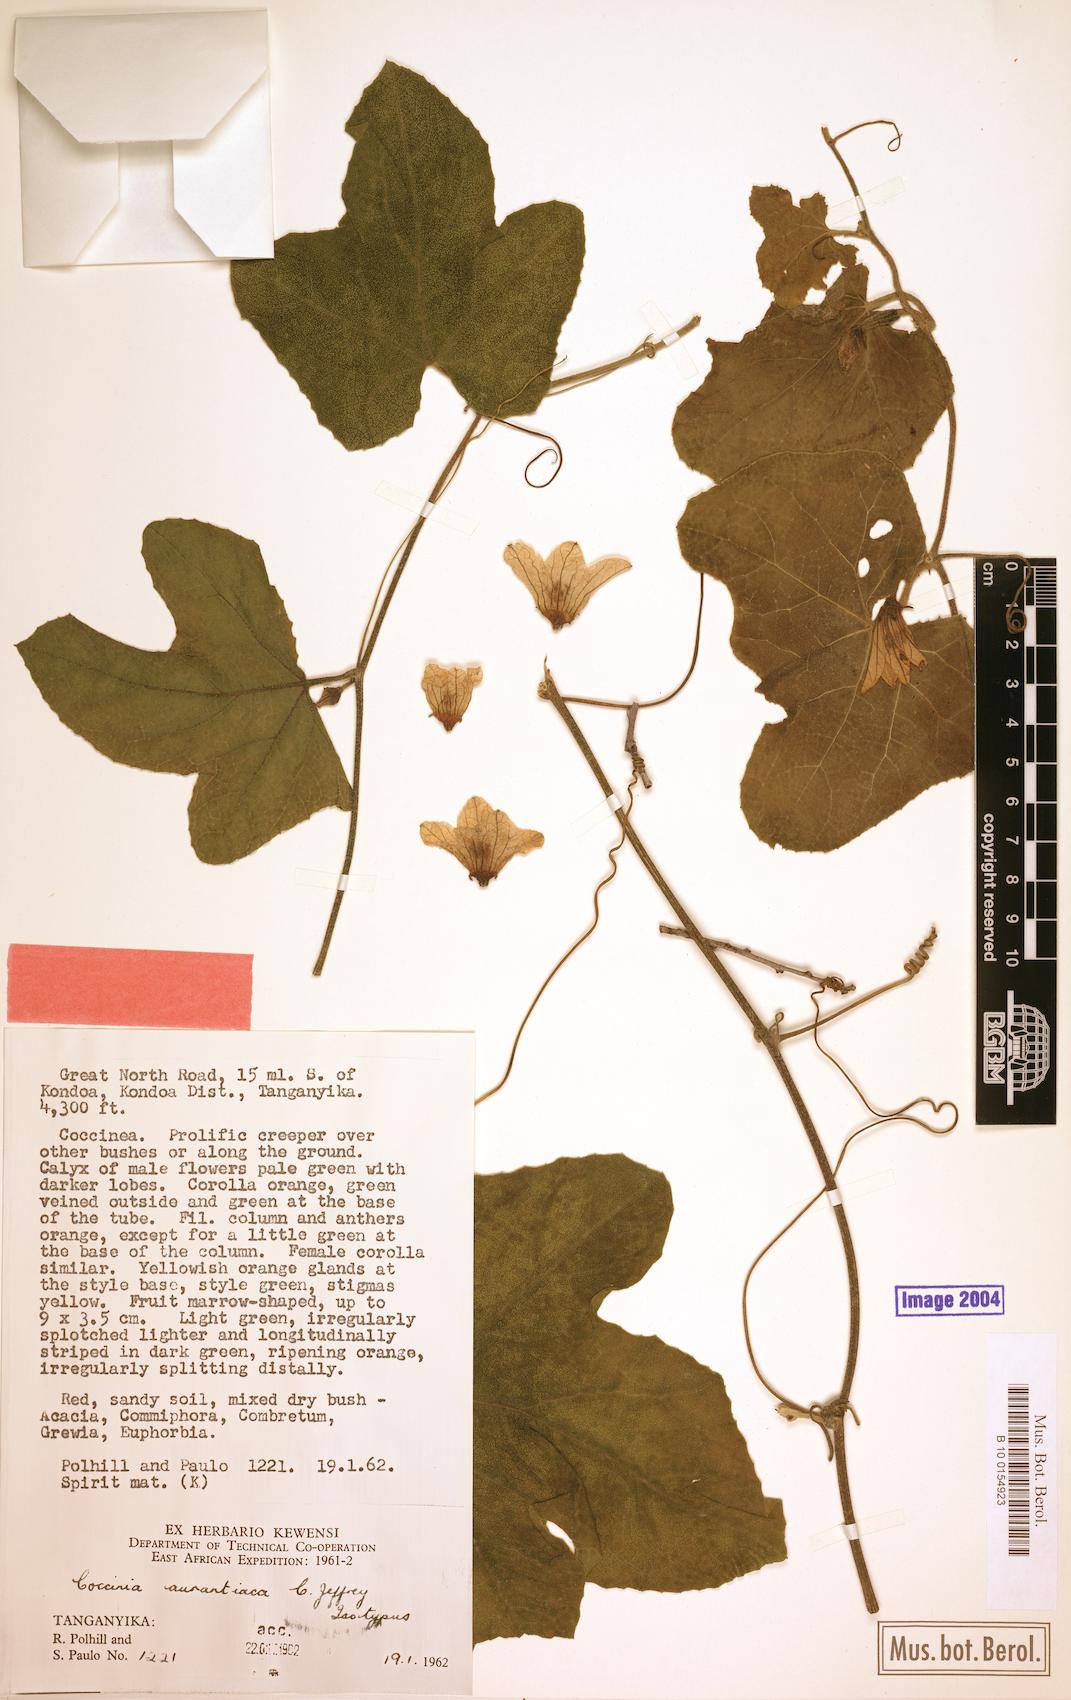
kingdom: Plantae
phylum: Tracheophyta
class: Magnoliopsida
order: Cucurbitales
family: Cucurbitaceae
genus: Coccinia
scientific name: Coccinia adoensis
